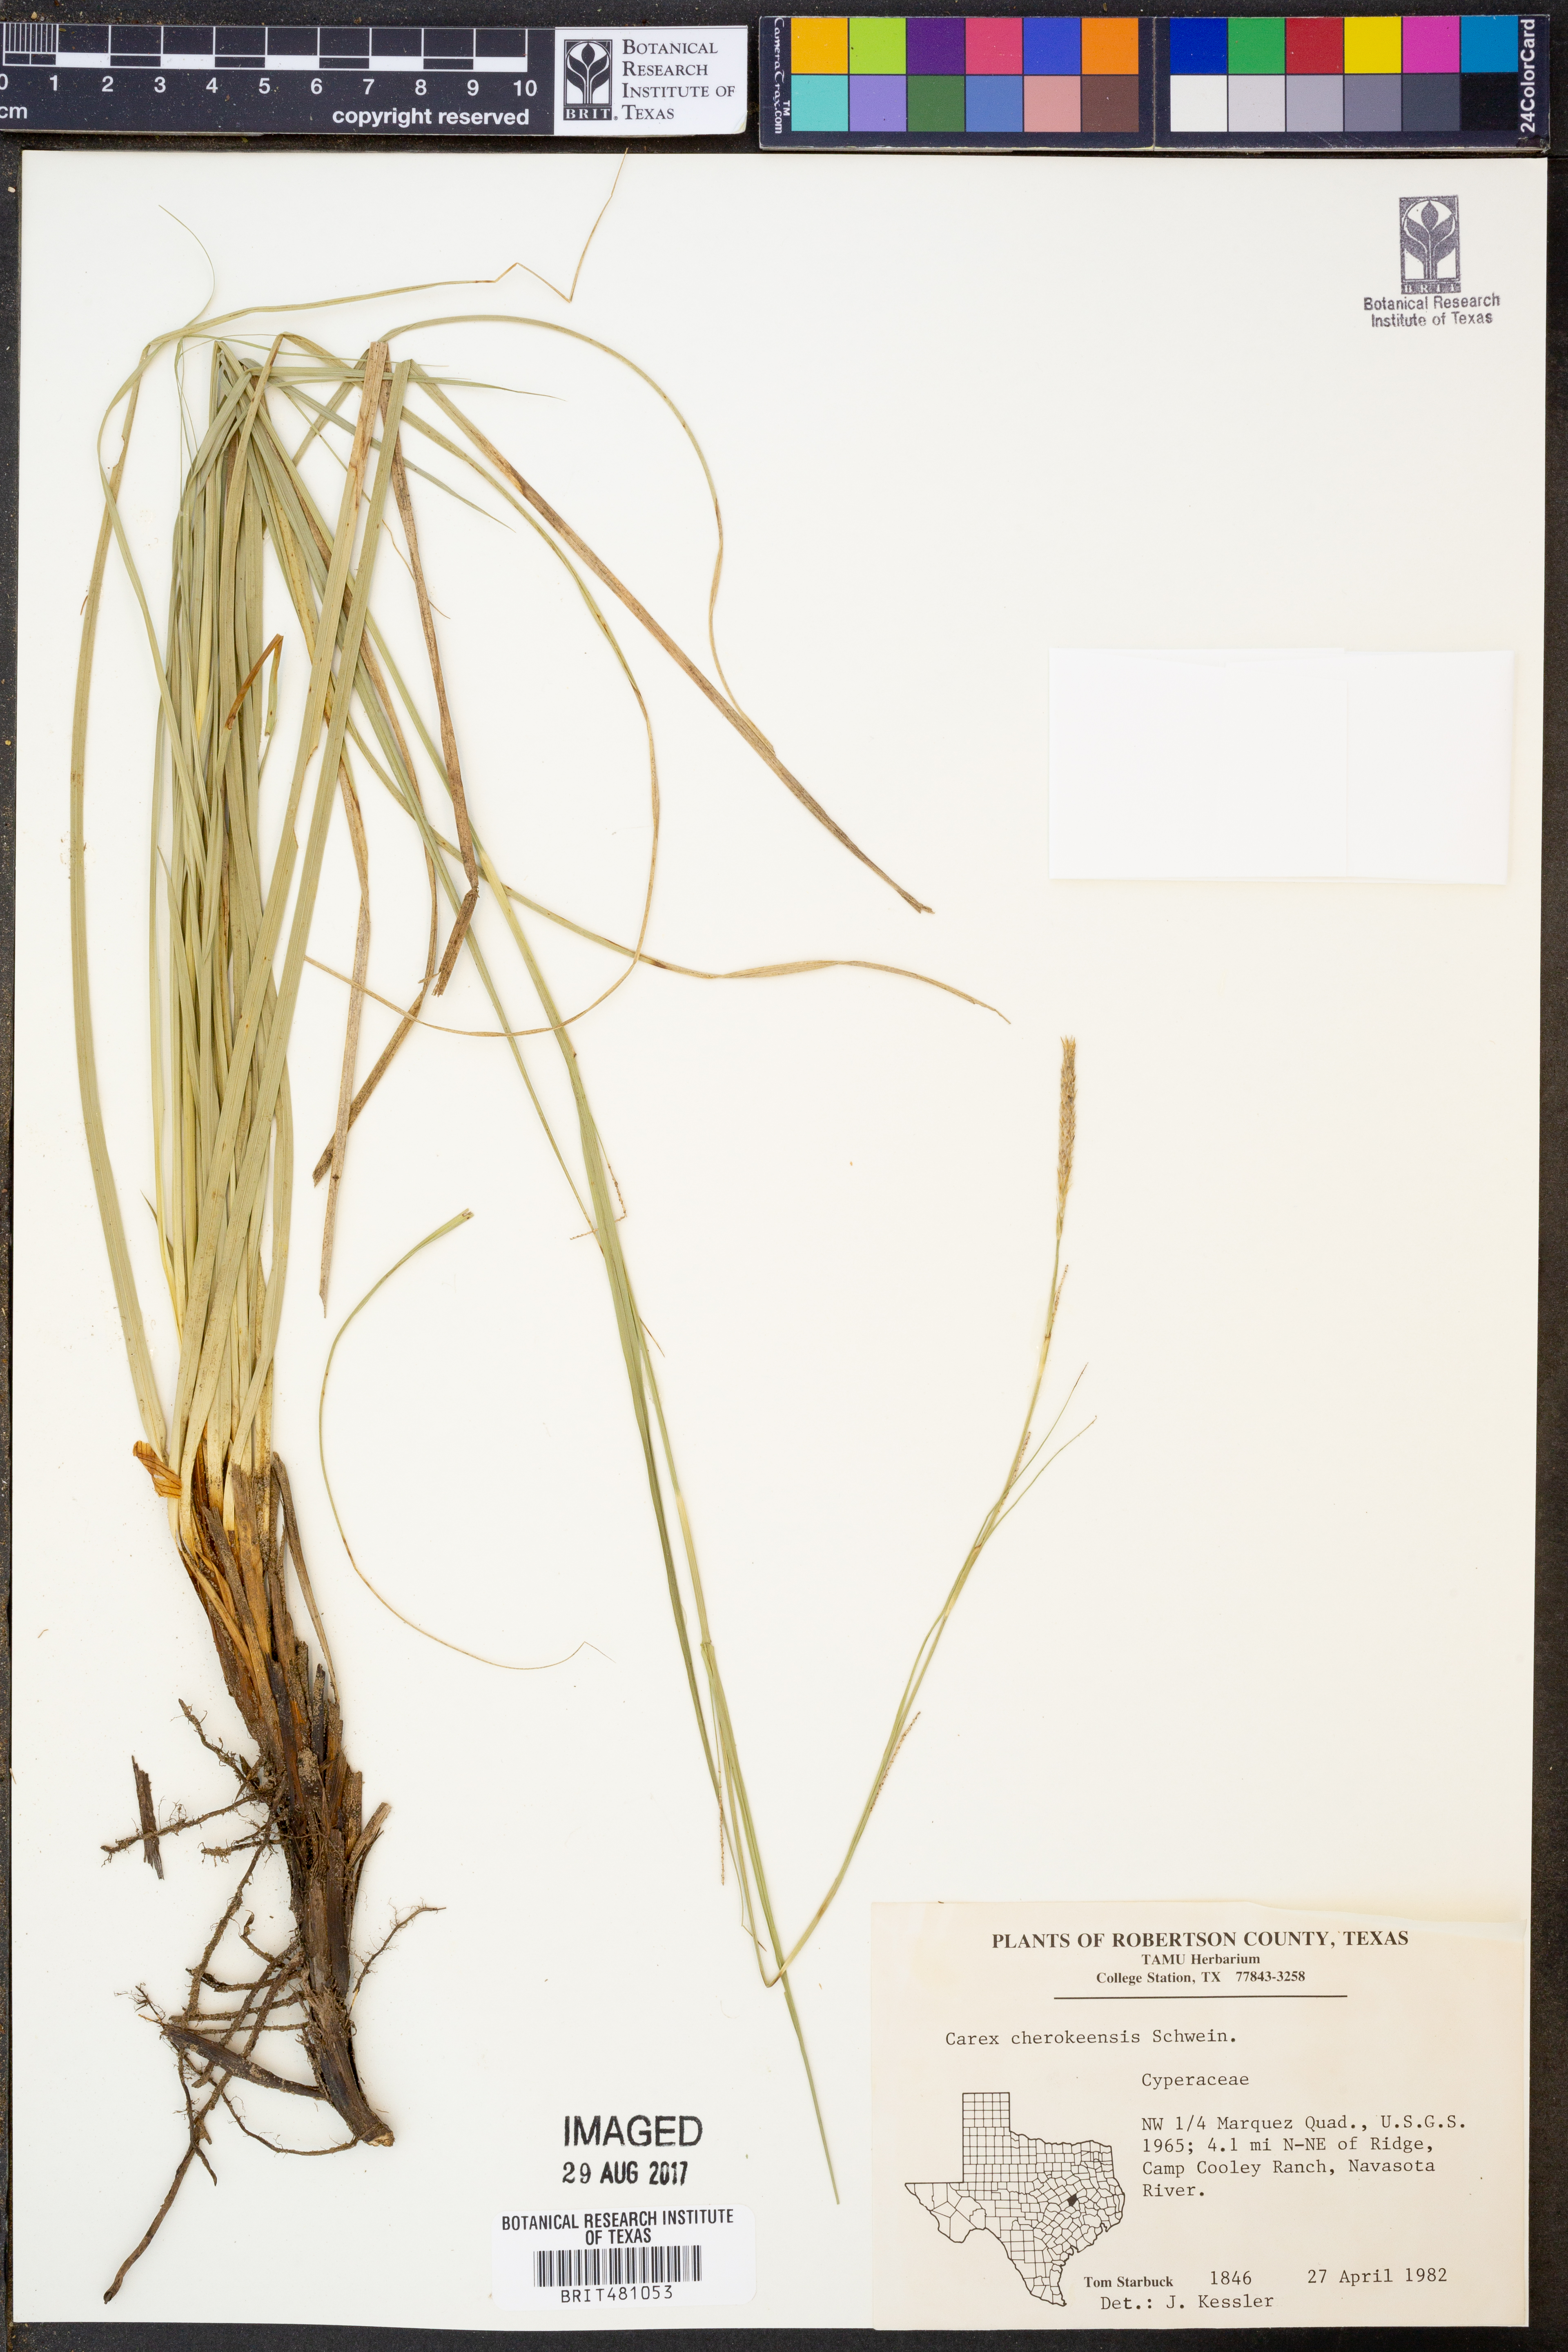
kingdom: Plantae
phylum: Tracheophyta
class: Liliopsida
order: Poales
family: Cyperaceae
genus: Carex
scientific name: Carex cherokeensis
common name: Cherokee sedge
